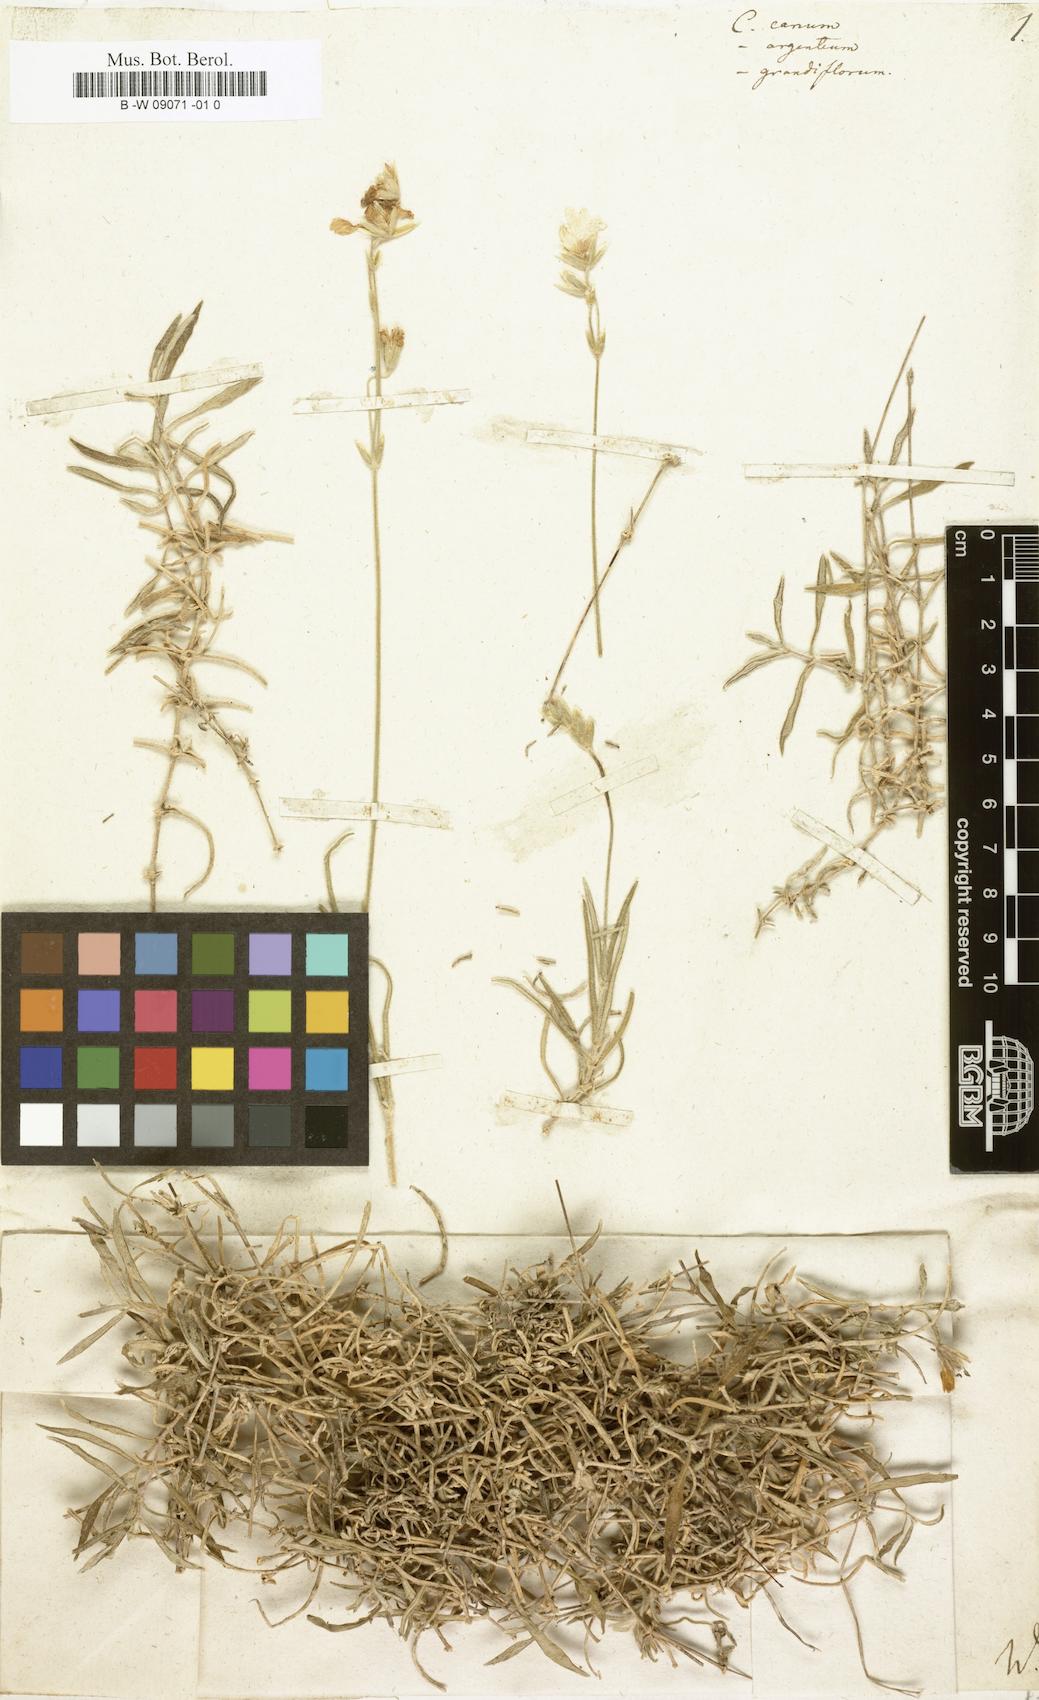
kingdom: Plantae
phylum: Tracheophyta
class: Magnoliopsida
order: Caryophyllales
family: Caryophyllaceae
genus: Cerastium
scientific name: Cerastium canum
